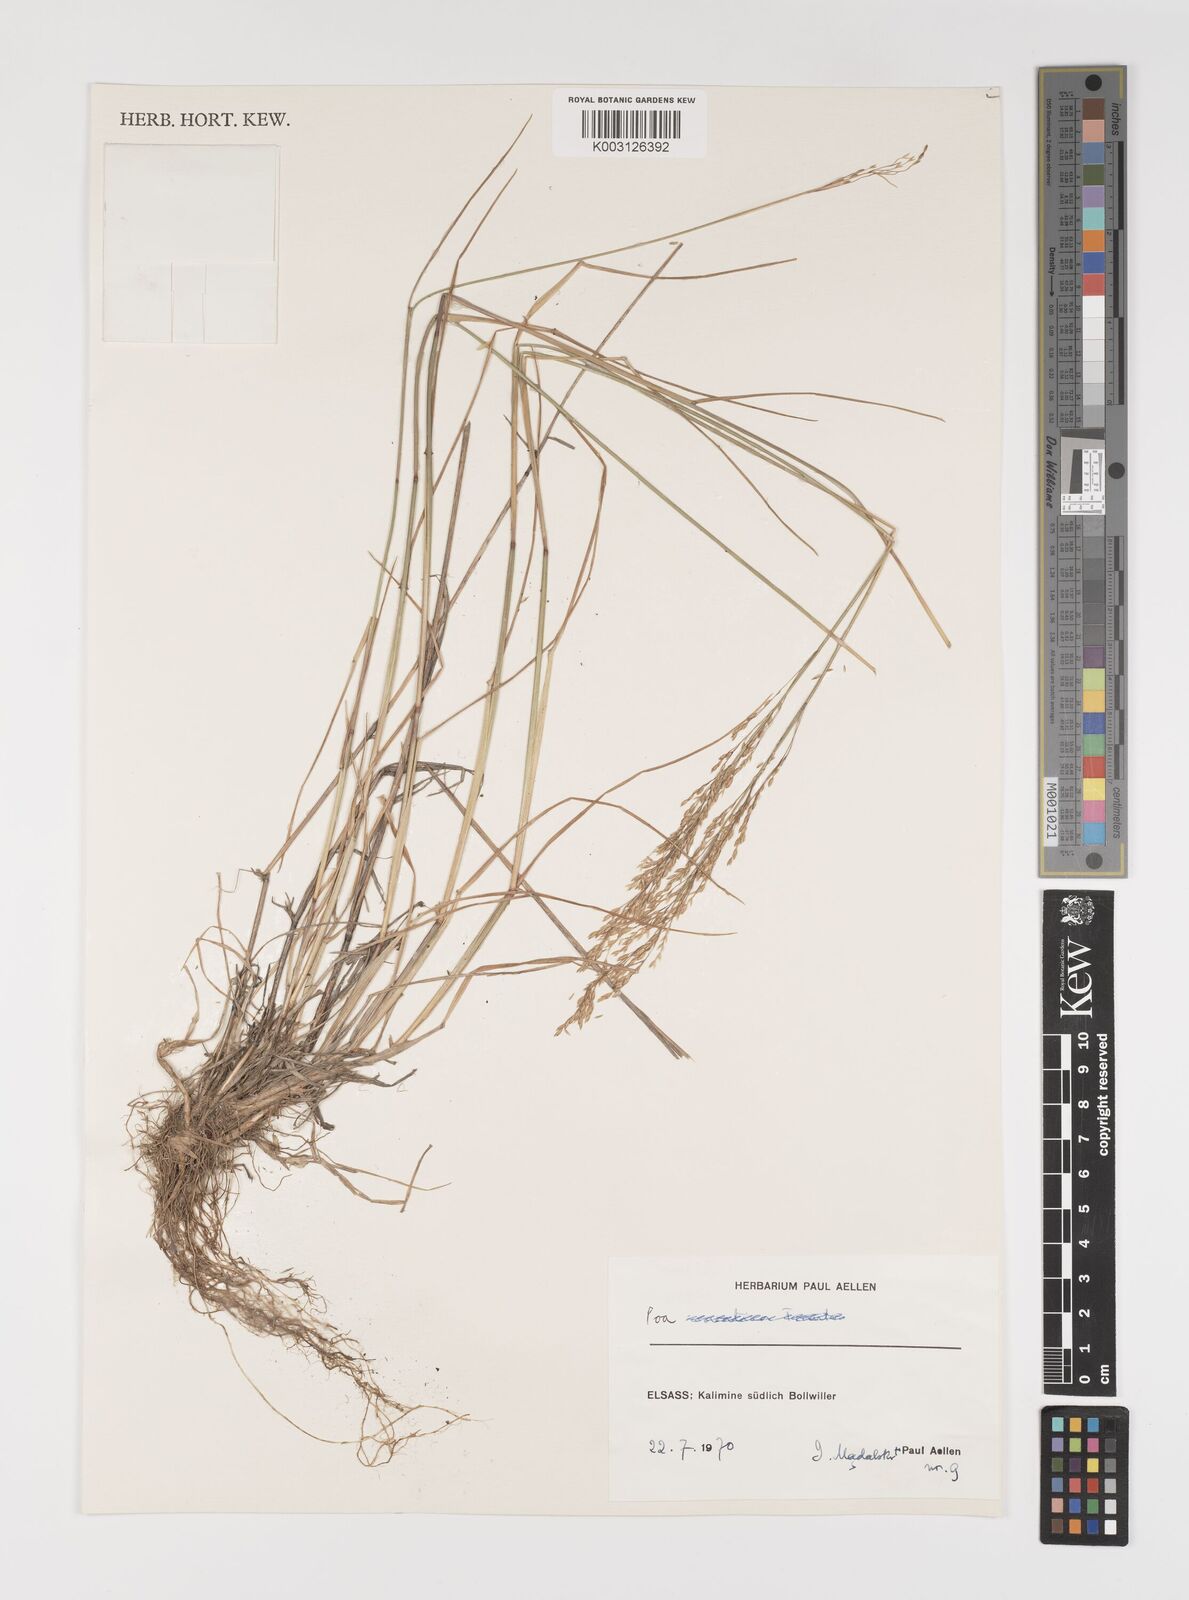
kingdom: Plantae
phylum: Tracheophyta
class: Liliopsida
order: Poales
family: Poaceae
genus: Poa
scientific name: Poa glauca
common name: Glaucous bluegrass
